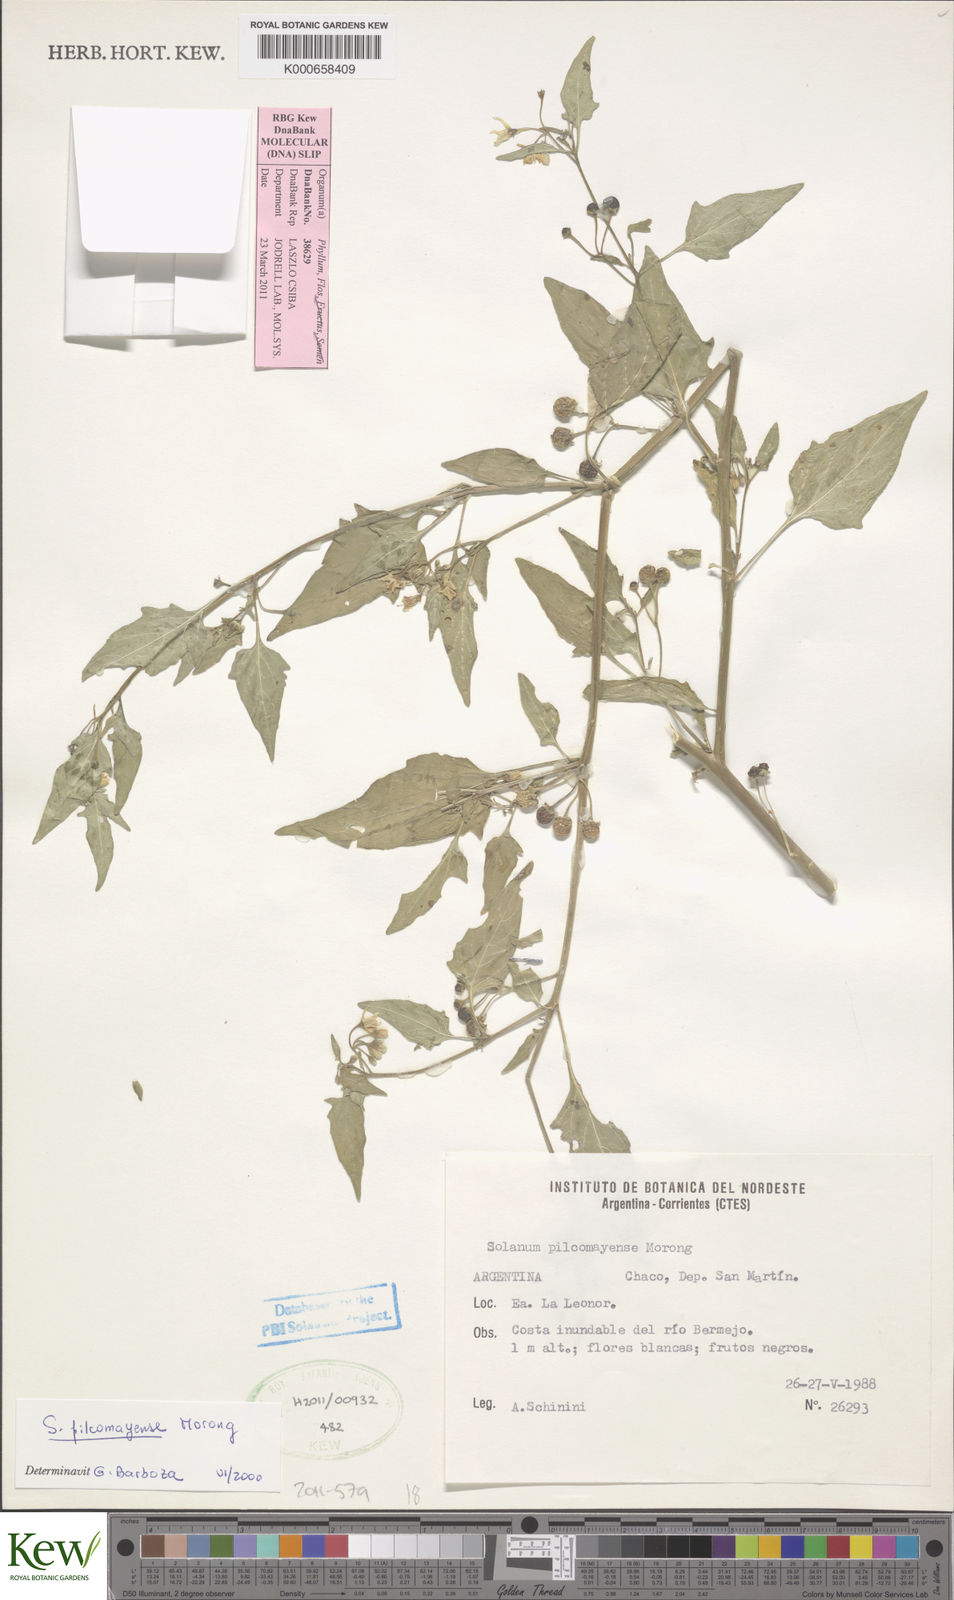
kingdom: Plantae
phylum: Tracheophyta
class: Magnoliopsida
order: Solanales
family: Solanaceae
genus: Solanum
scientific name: Solanum pilcomayense
